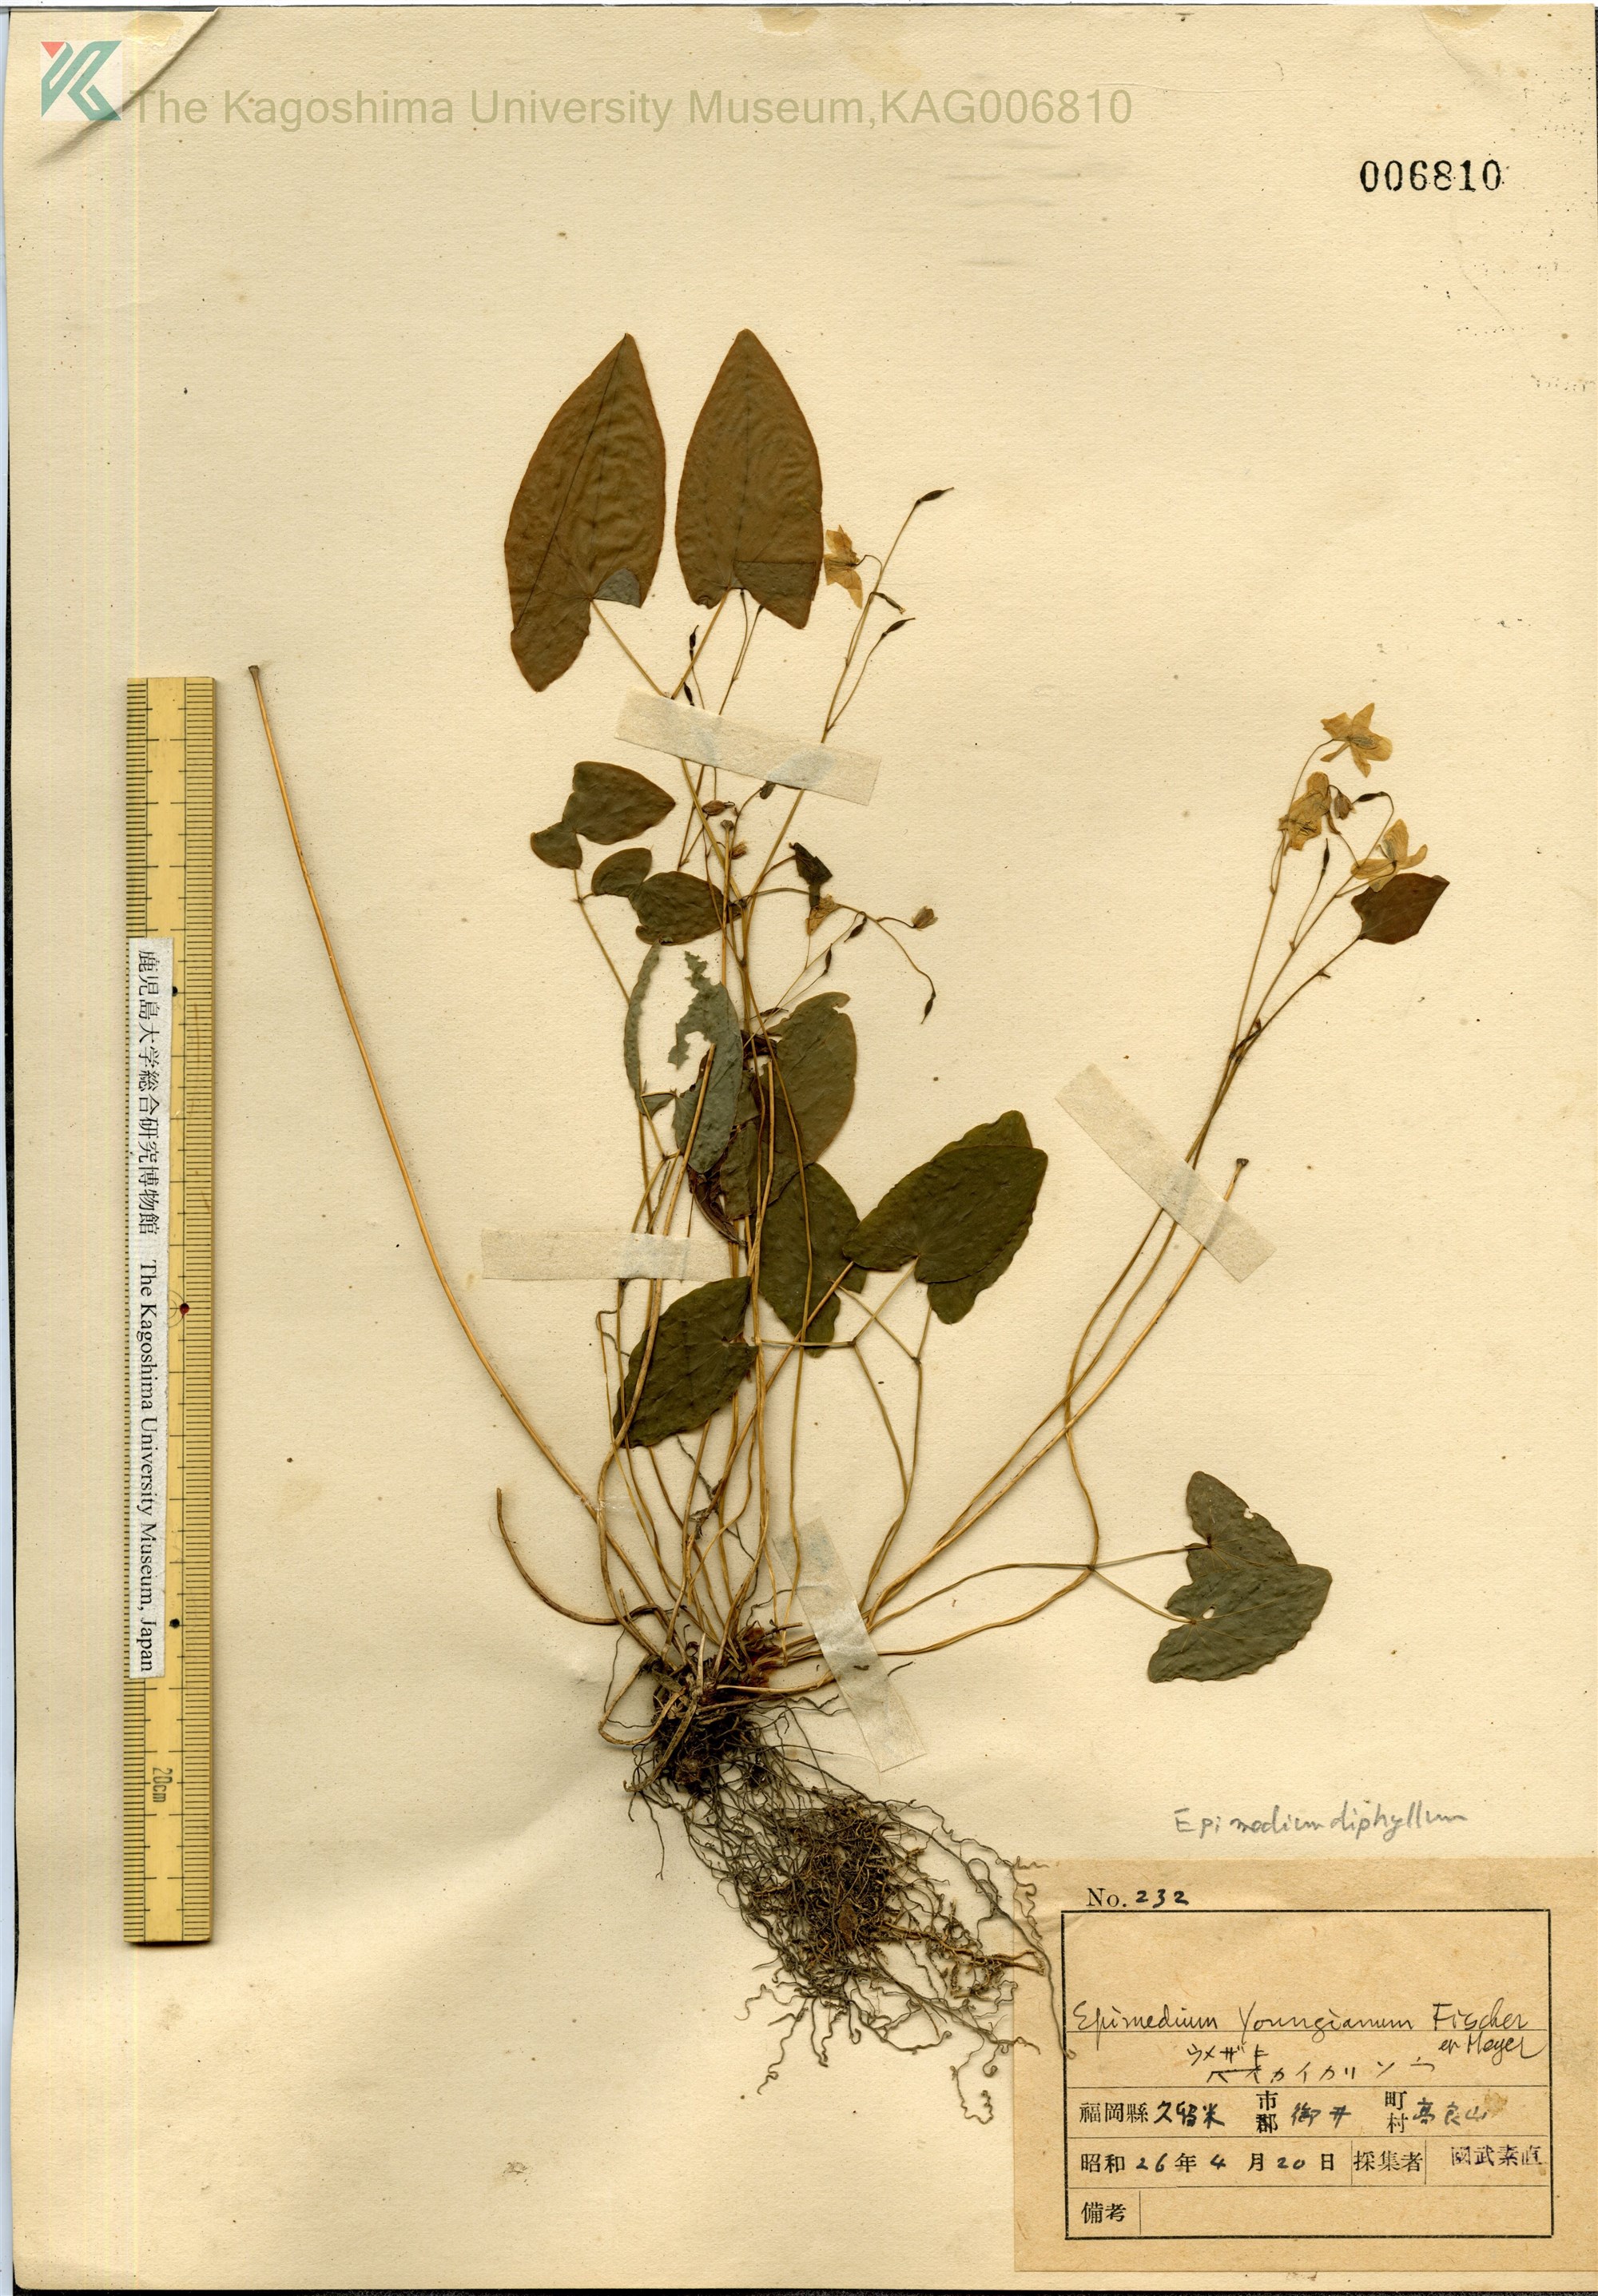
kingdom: Plantae
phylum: Tracheophyta
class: Magnoliopsida
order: Ranunculales
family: Berberidaceae
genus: Epimedium
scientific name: Epimedium diphyllum
